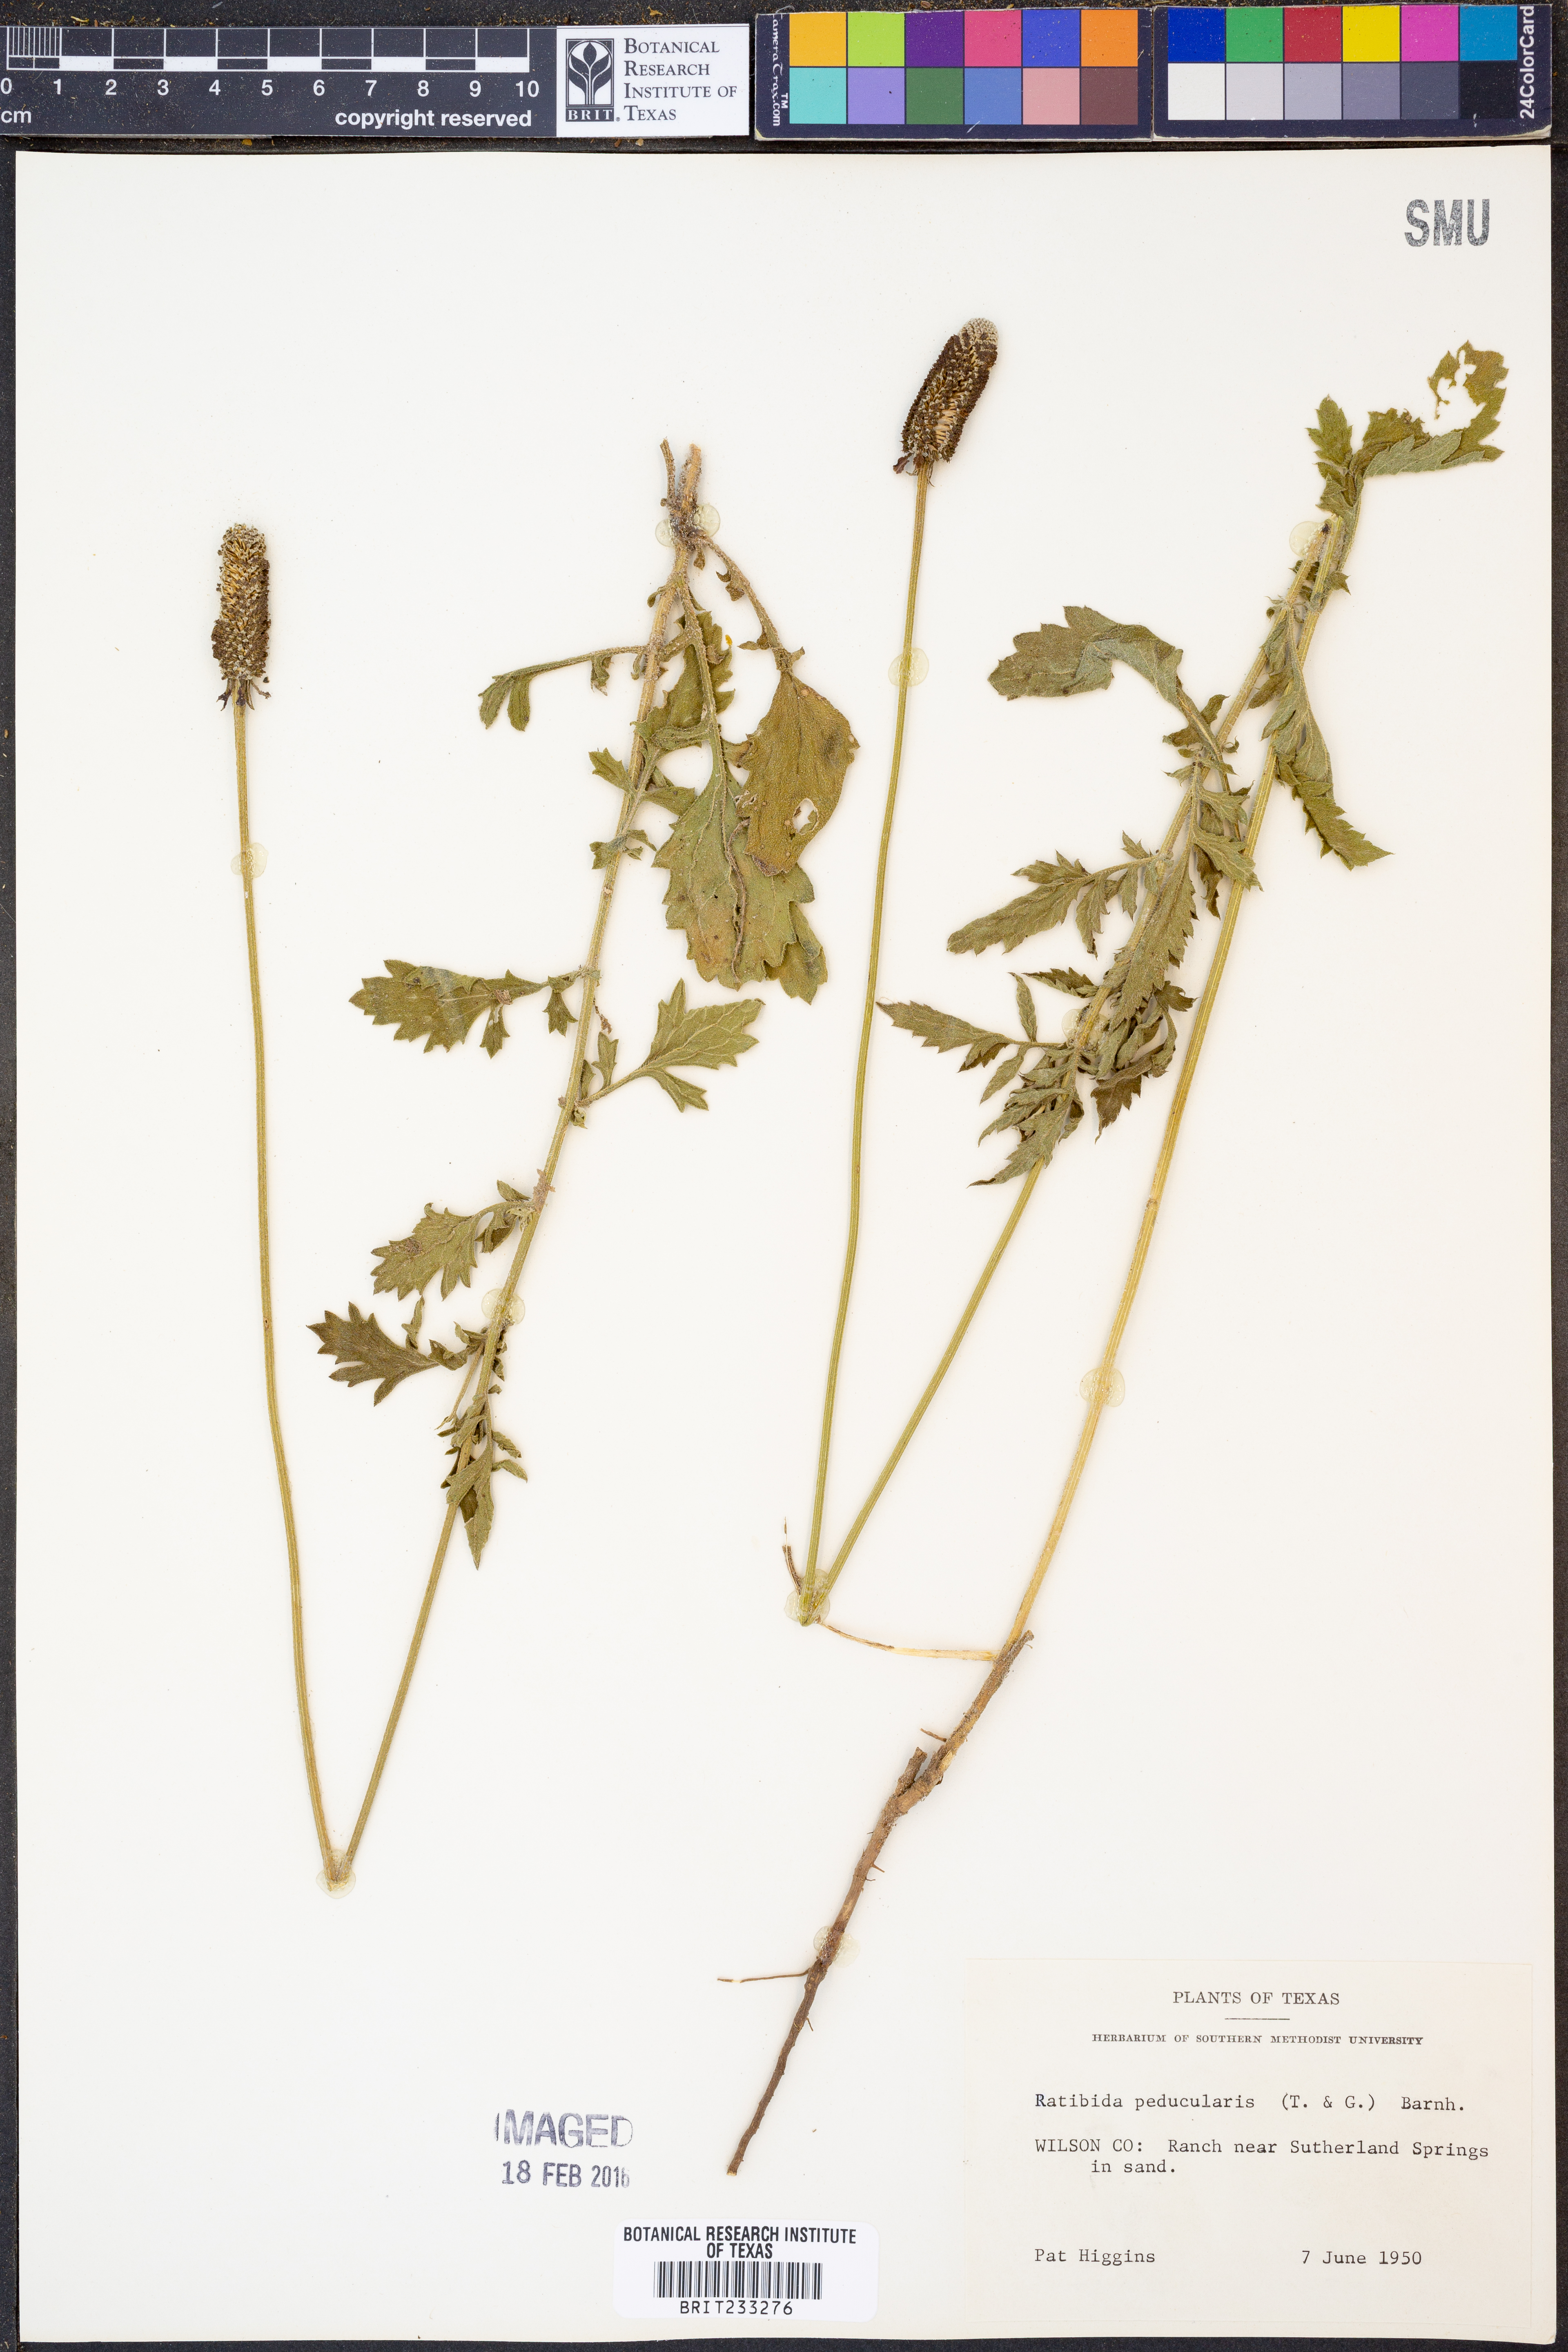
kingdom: Plantae
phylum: Tracheophyta
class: Magnoliopsida
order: Asterales
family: Asteraceae
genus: Ratibida
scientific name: Ratibida peduncularis
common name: Naked prairie-coneflower
